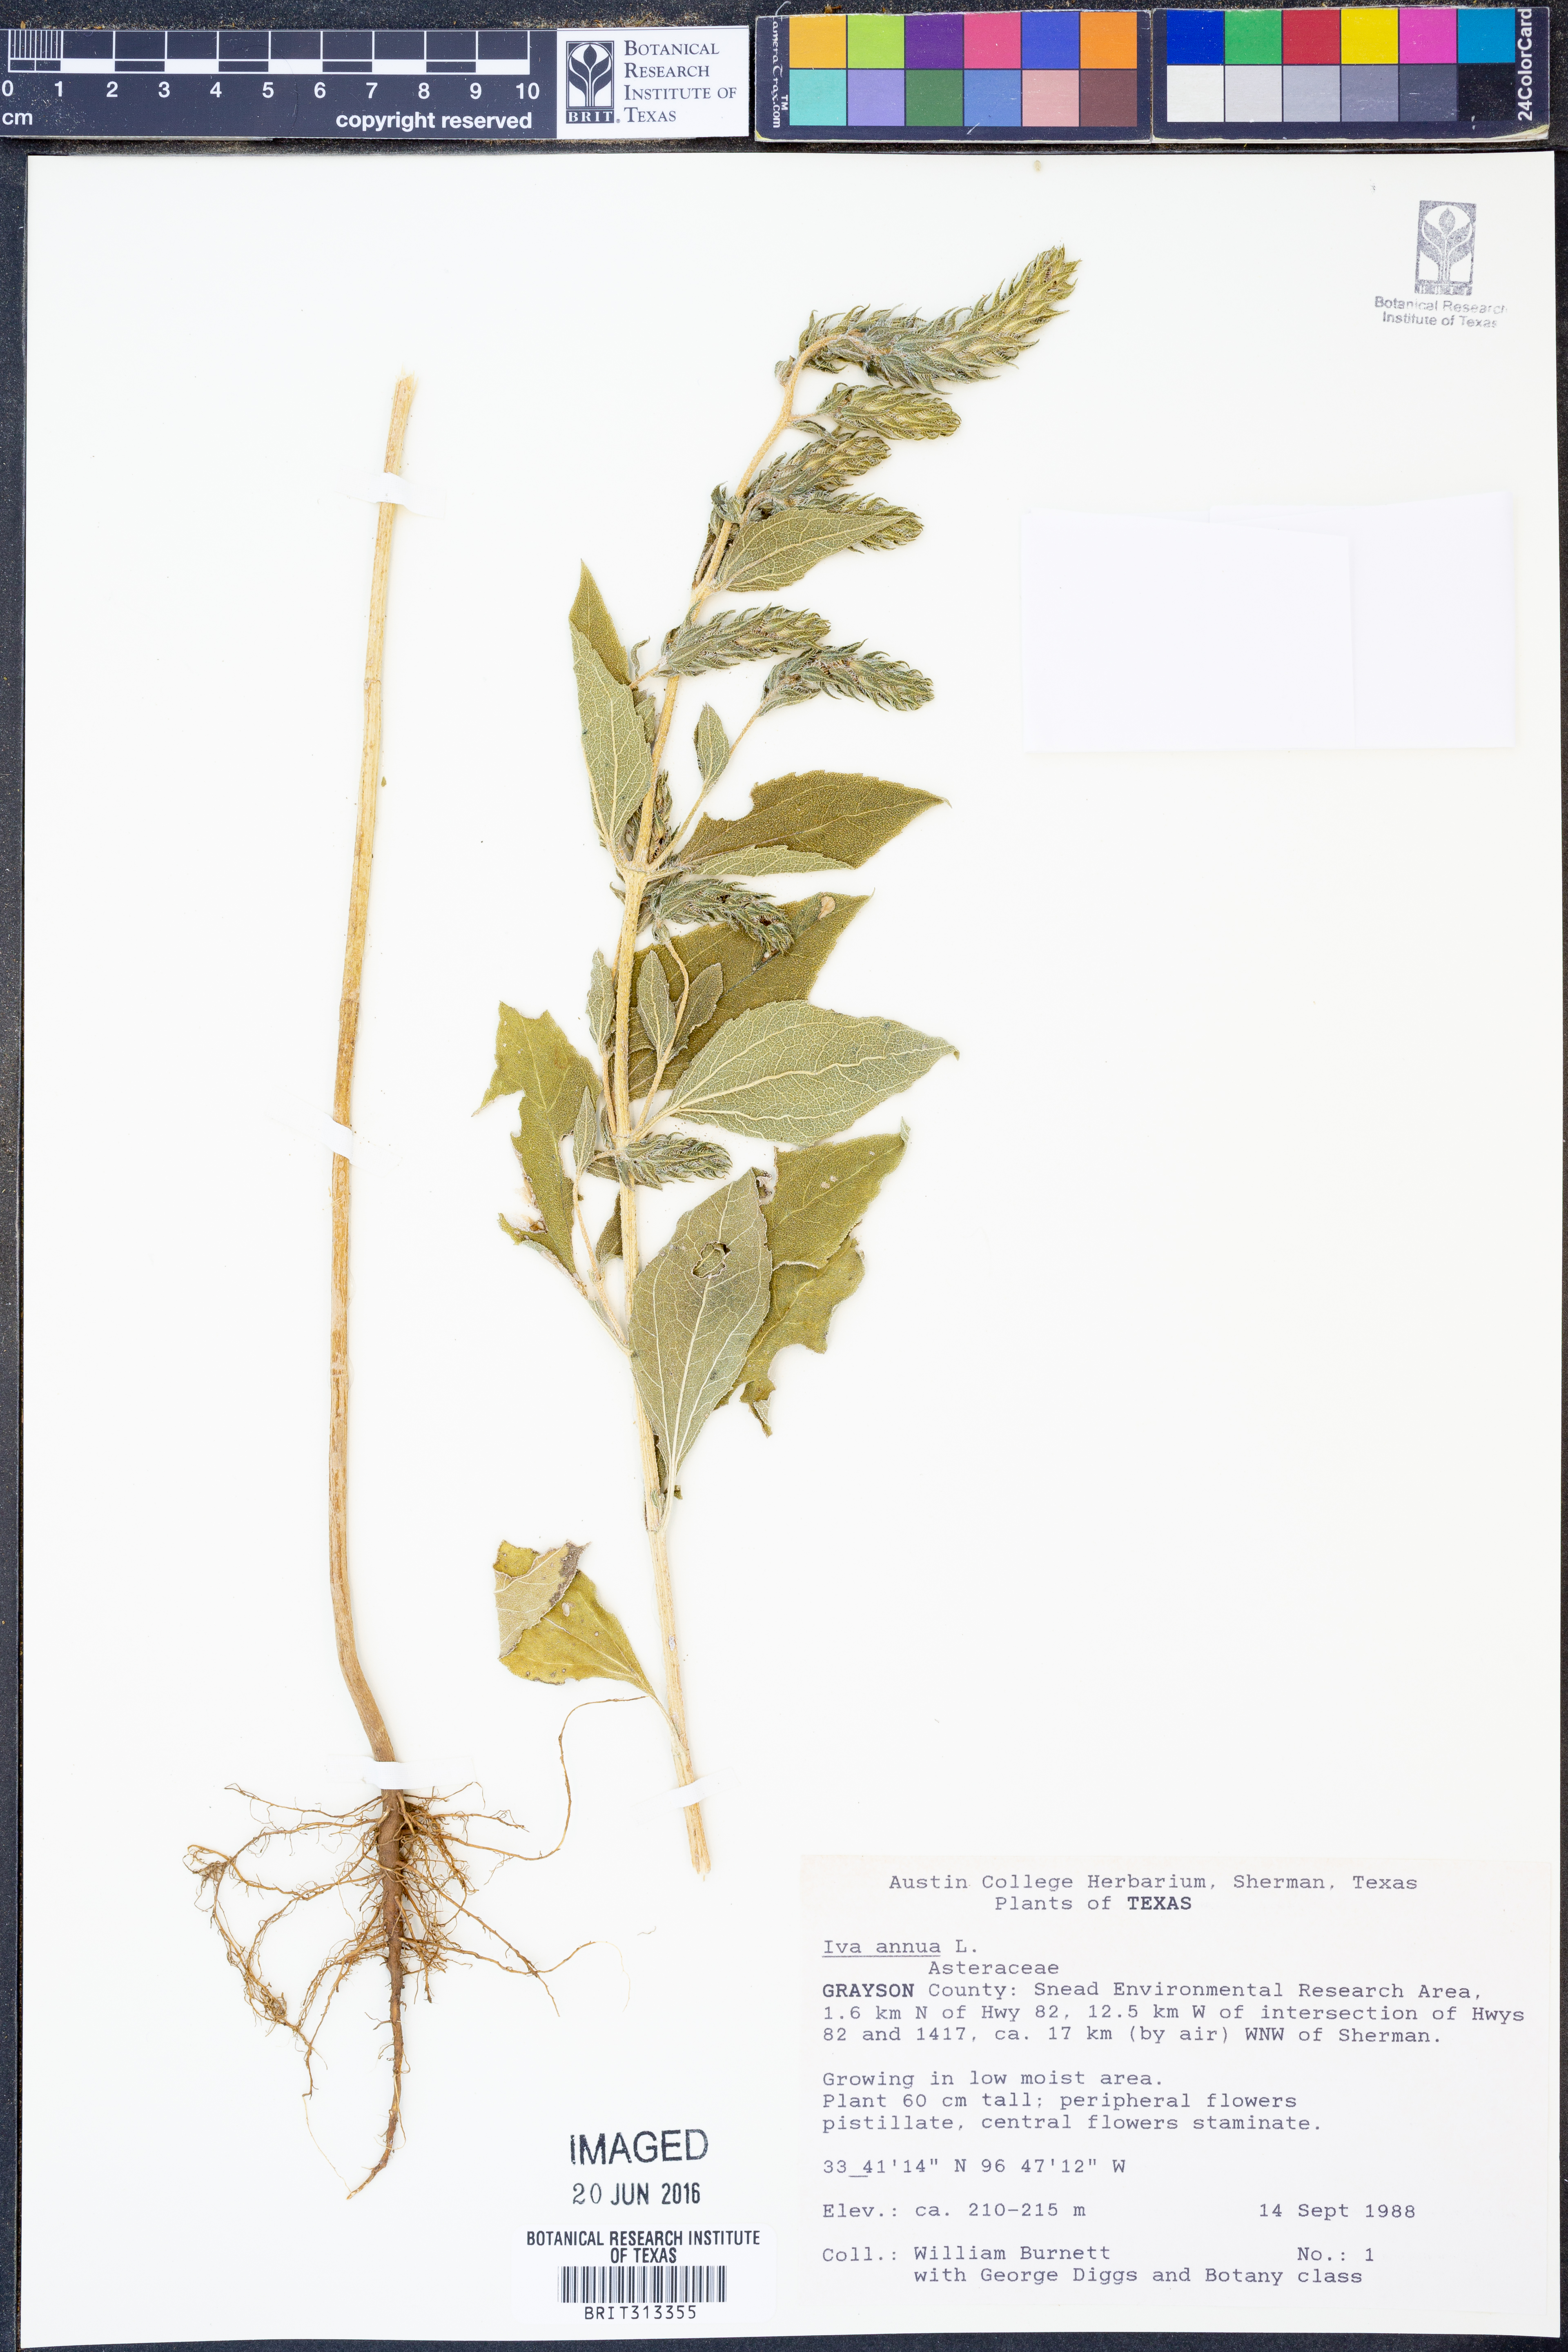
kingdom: Plantae
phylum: Tracheophyta
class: Magnoliopsida
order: Asterales
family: Asteraceae
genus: Iva
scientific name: Iva annua
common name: Marsh-elder
